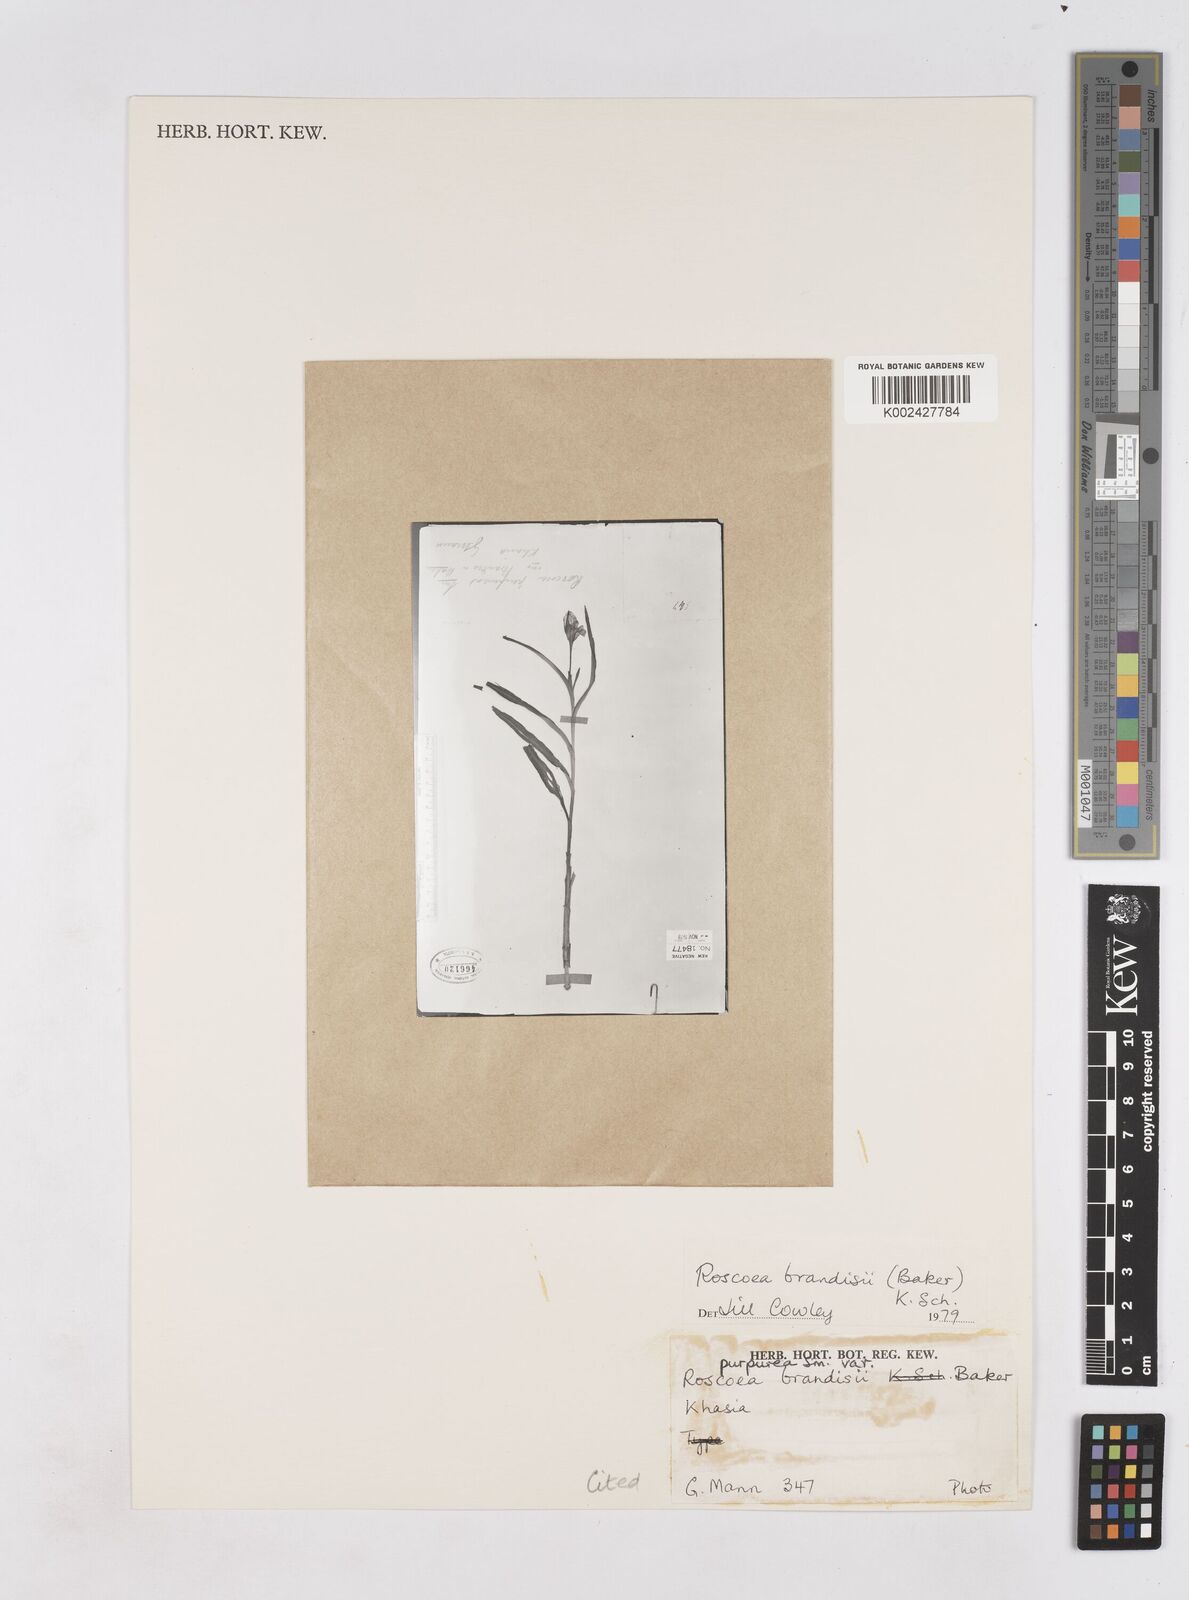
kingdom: Plantae
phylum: Tracheophyta
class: Liliopsida
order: Zingiberales
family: Zingiberaceae
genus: Roscoea
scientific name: Roscoea brandisii
